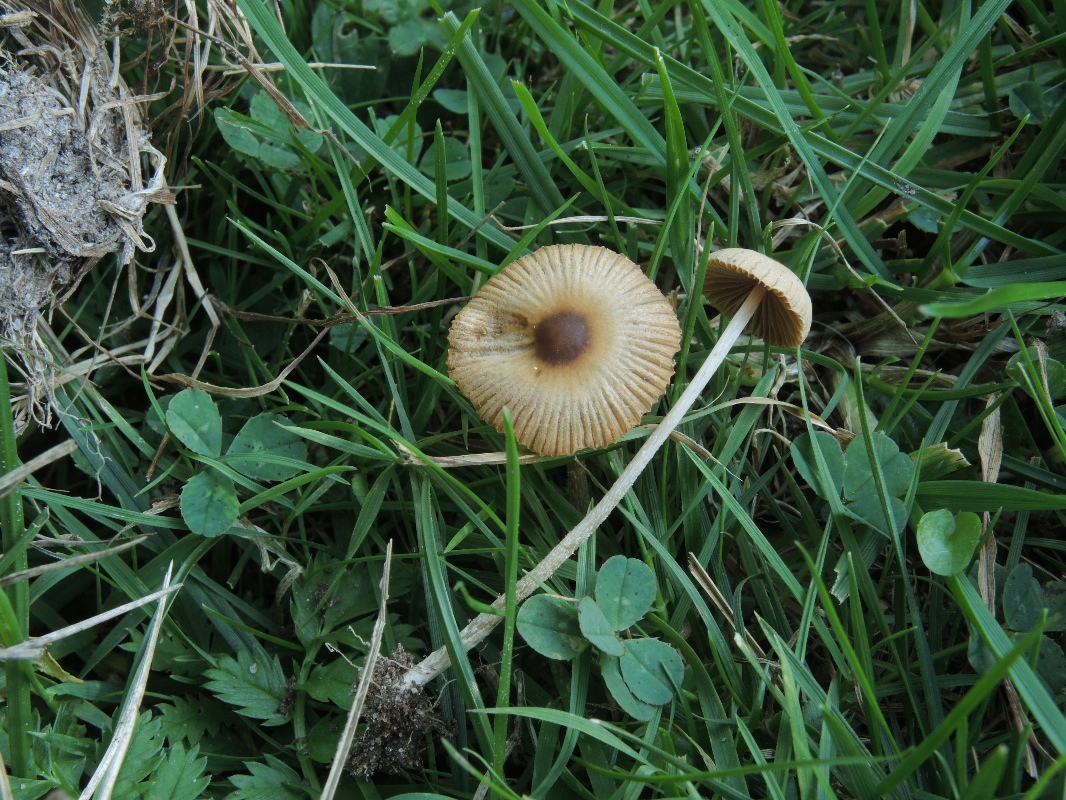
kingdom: Fungi
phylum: Basidiomycota
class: Agaricomycetes
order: Agaricales
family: Bolbitiaceae
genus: Pholiotina
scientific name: Pholiotina sulcata
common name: plisseret dansehat
